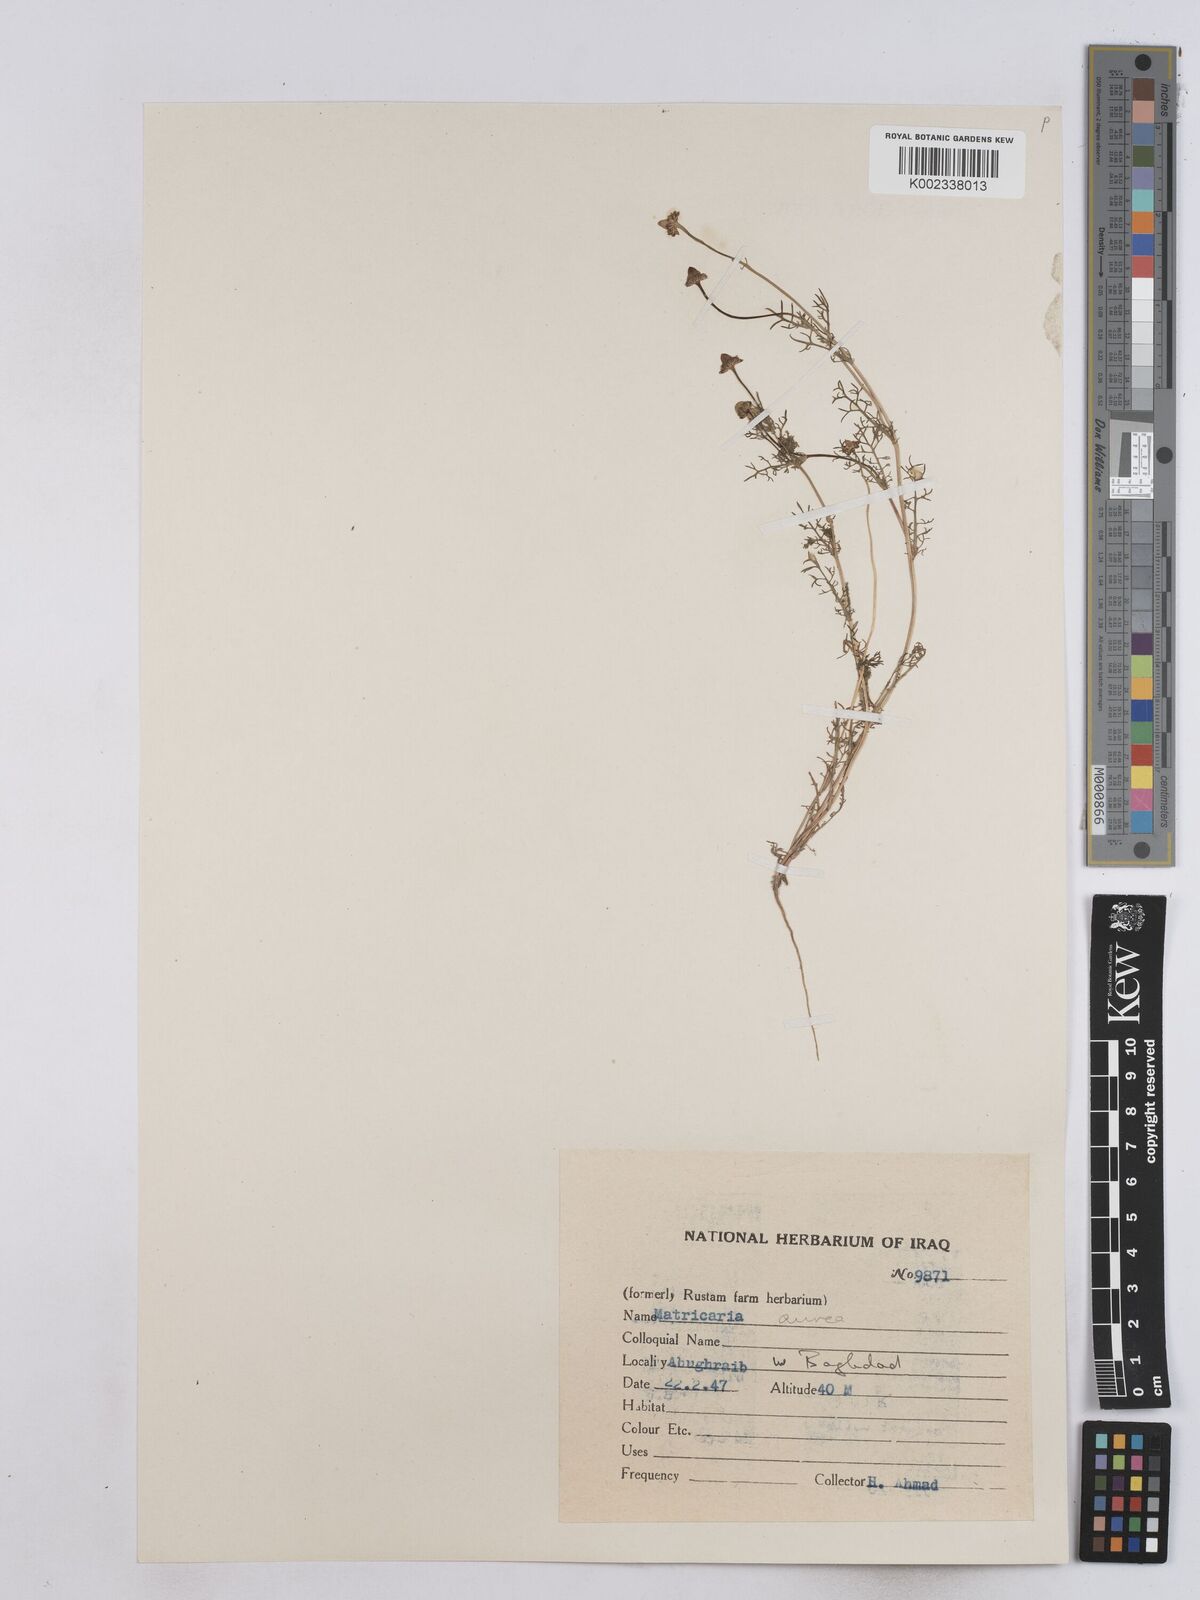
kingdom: Plantae
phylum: Tracheophyta
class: Magnoliopsida
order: Asterales
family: Asteraceae
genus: Matricaria
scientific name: Matricaria aurea
